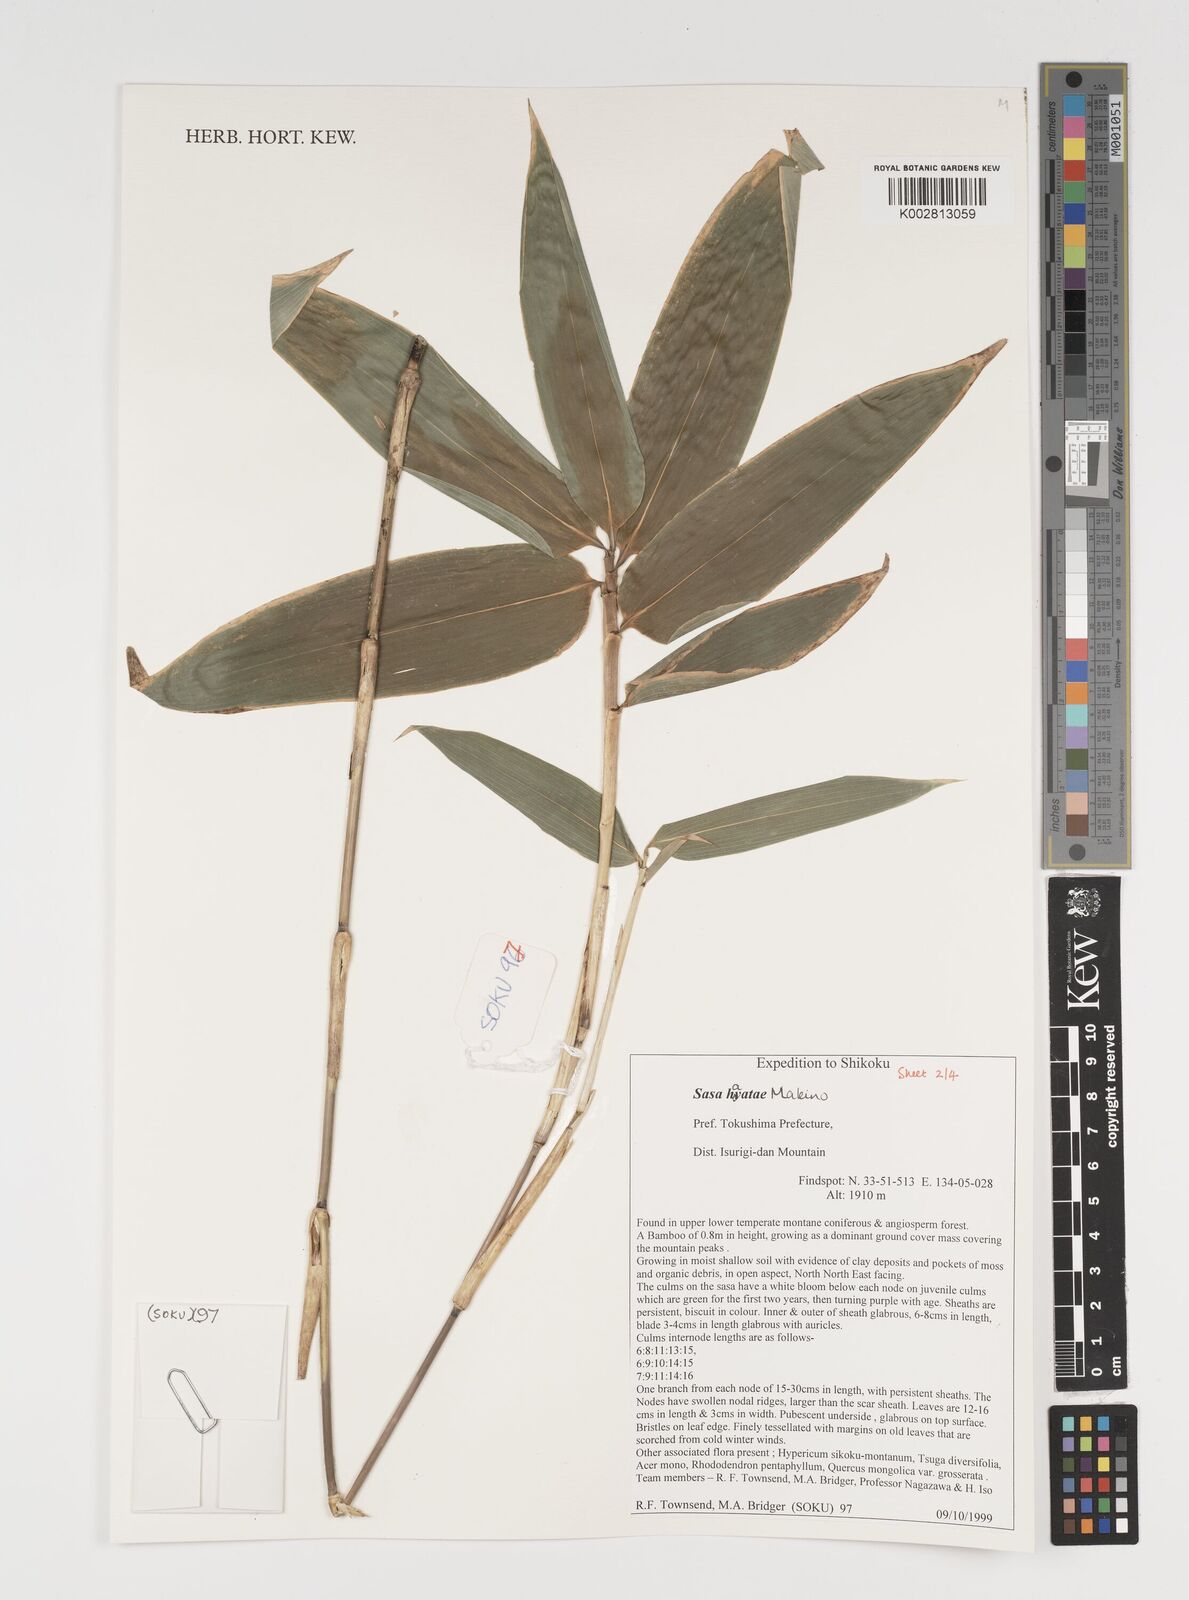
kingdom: Plantae
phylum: Tracheophyta
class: Liliopsida
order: Poales
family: Poaceae
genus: Sasa
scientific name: Sasa hayatae
